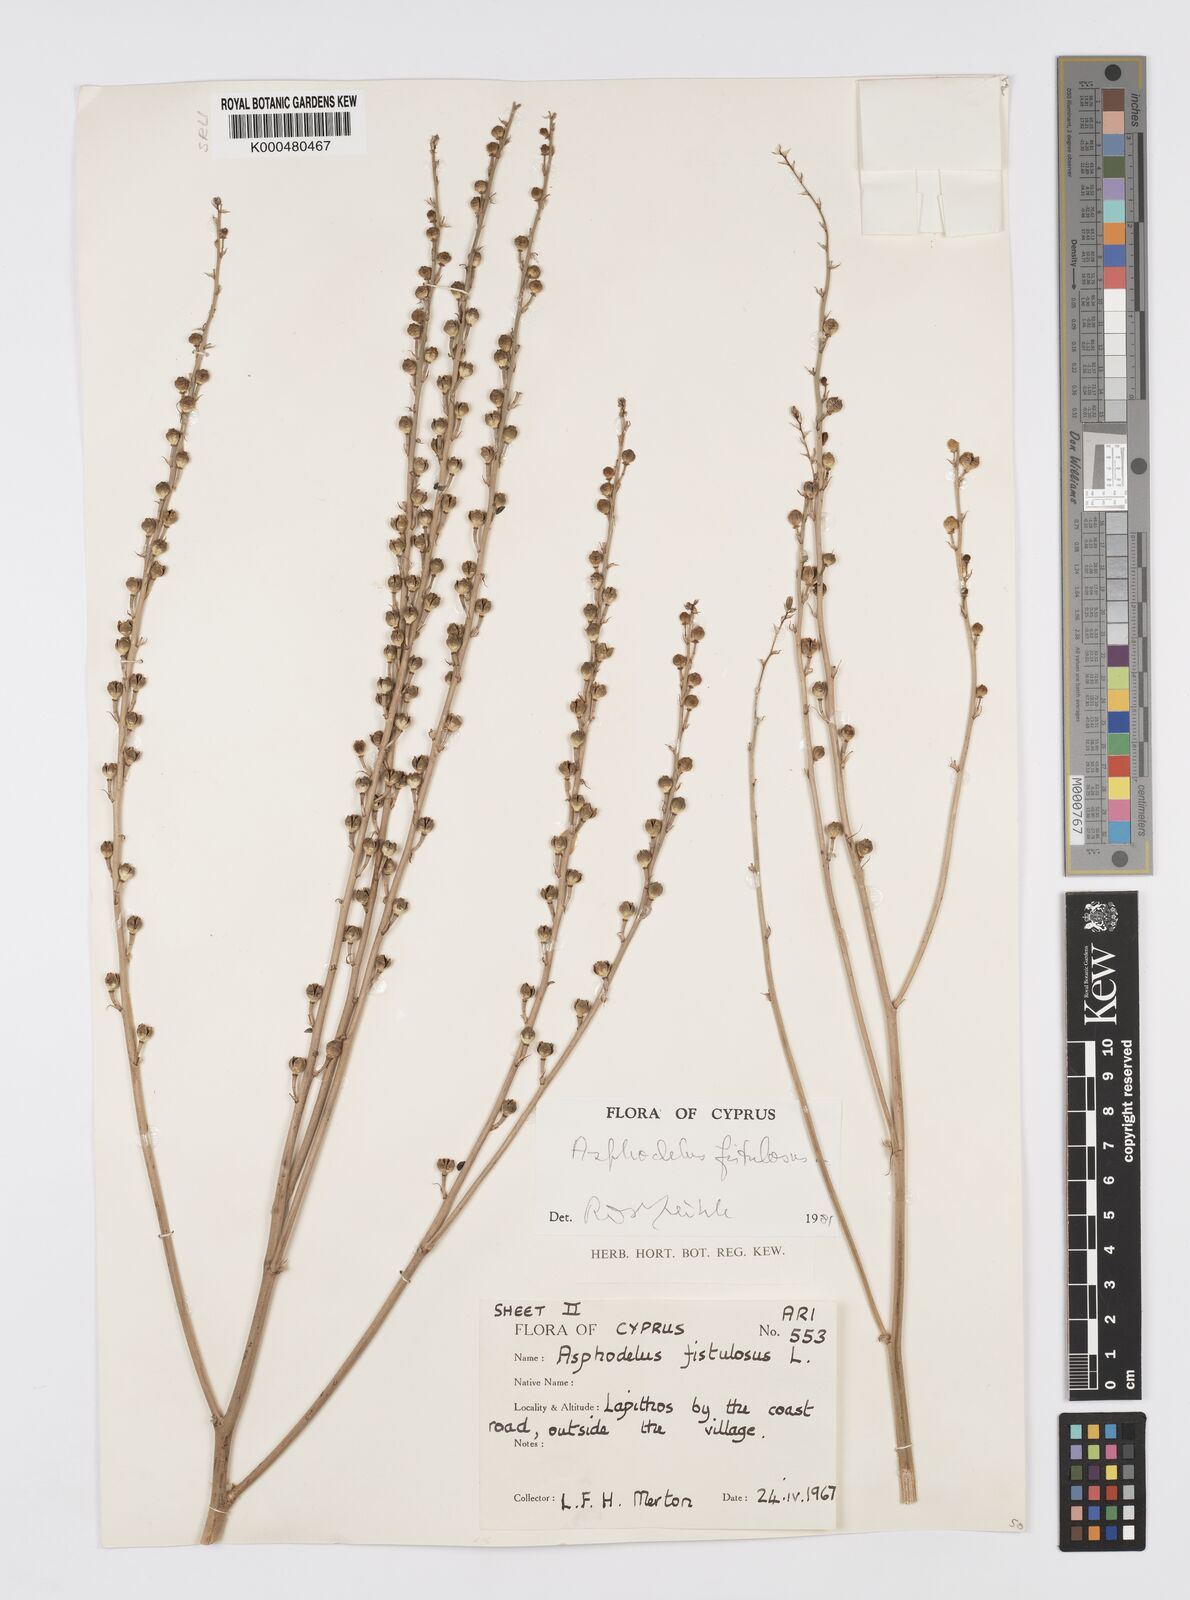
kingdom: Plantae
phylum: Tracheophyta
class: Liliopsida
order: Asparagales
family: Asphodelaceae
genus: Asphodelus
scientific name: Asphodelus fistulosus
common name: Onionweed
